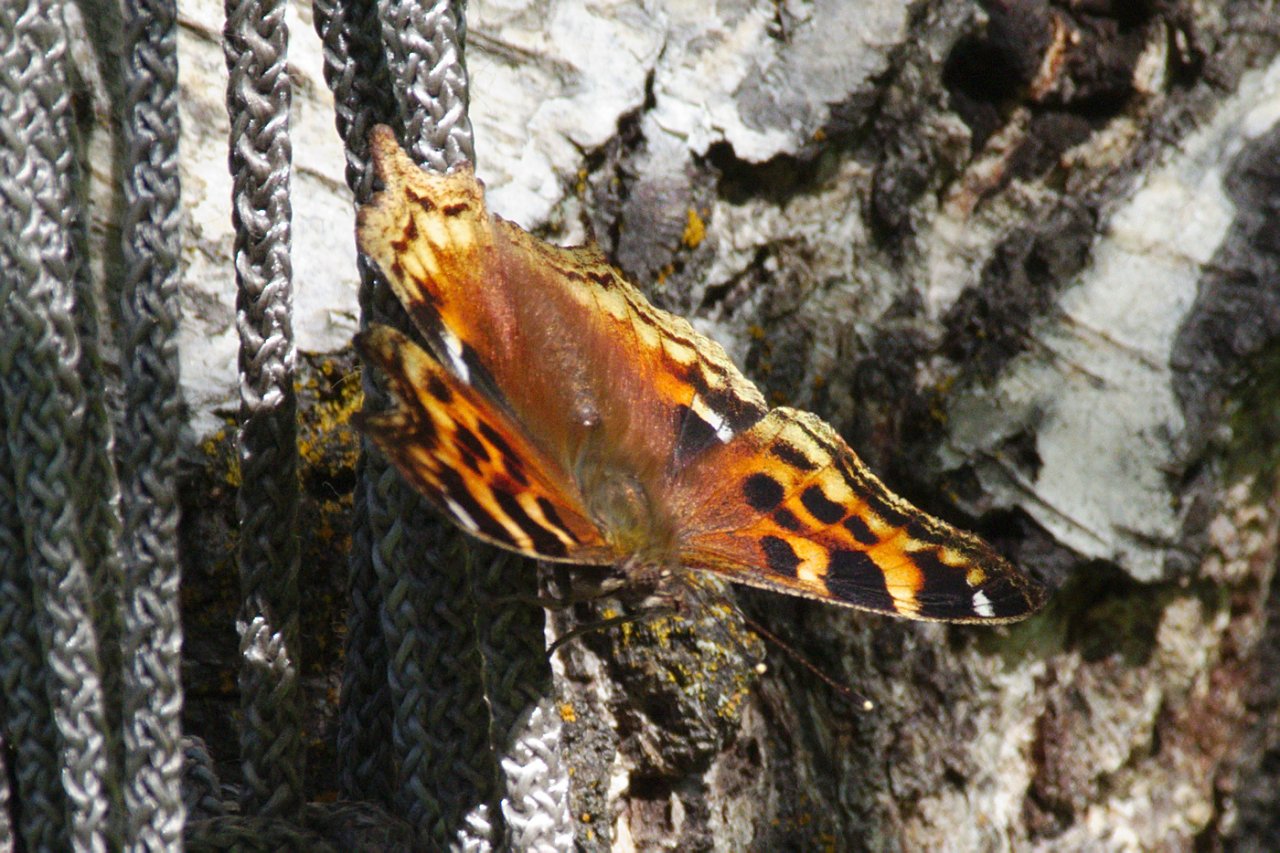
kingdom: Animalia
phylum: Arthropoda
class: Insecta
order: Lepidoptera
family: Nymphalidae
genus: Polygonia
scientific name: Polygonia vaualbum
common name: Compton Tortoiseshell
